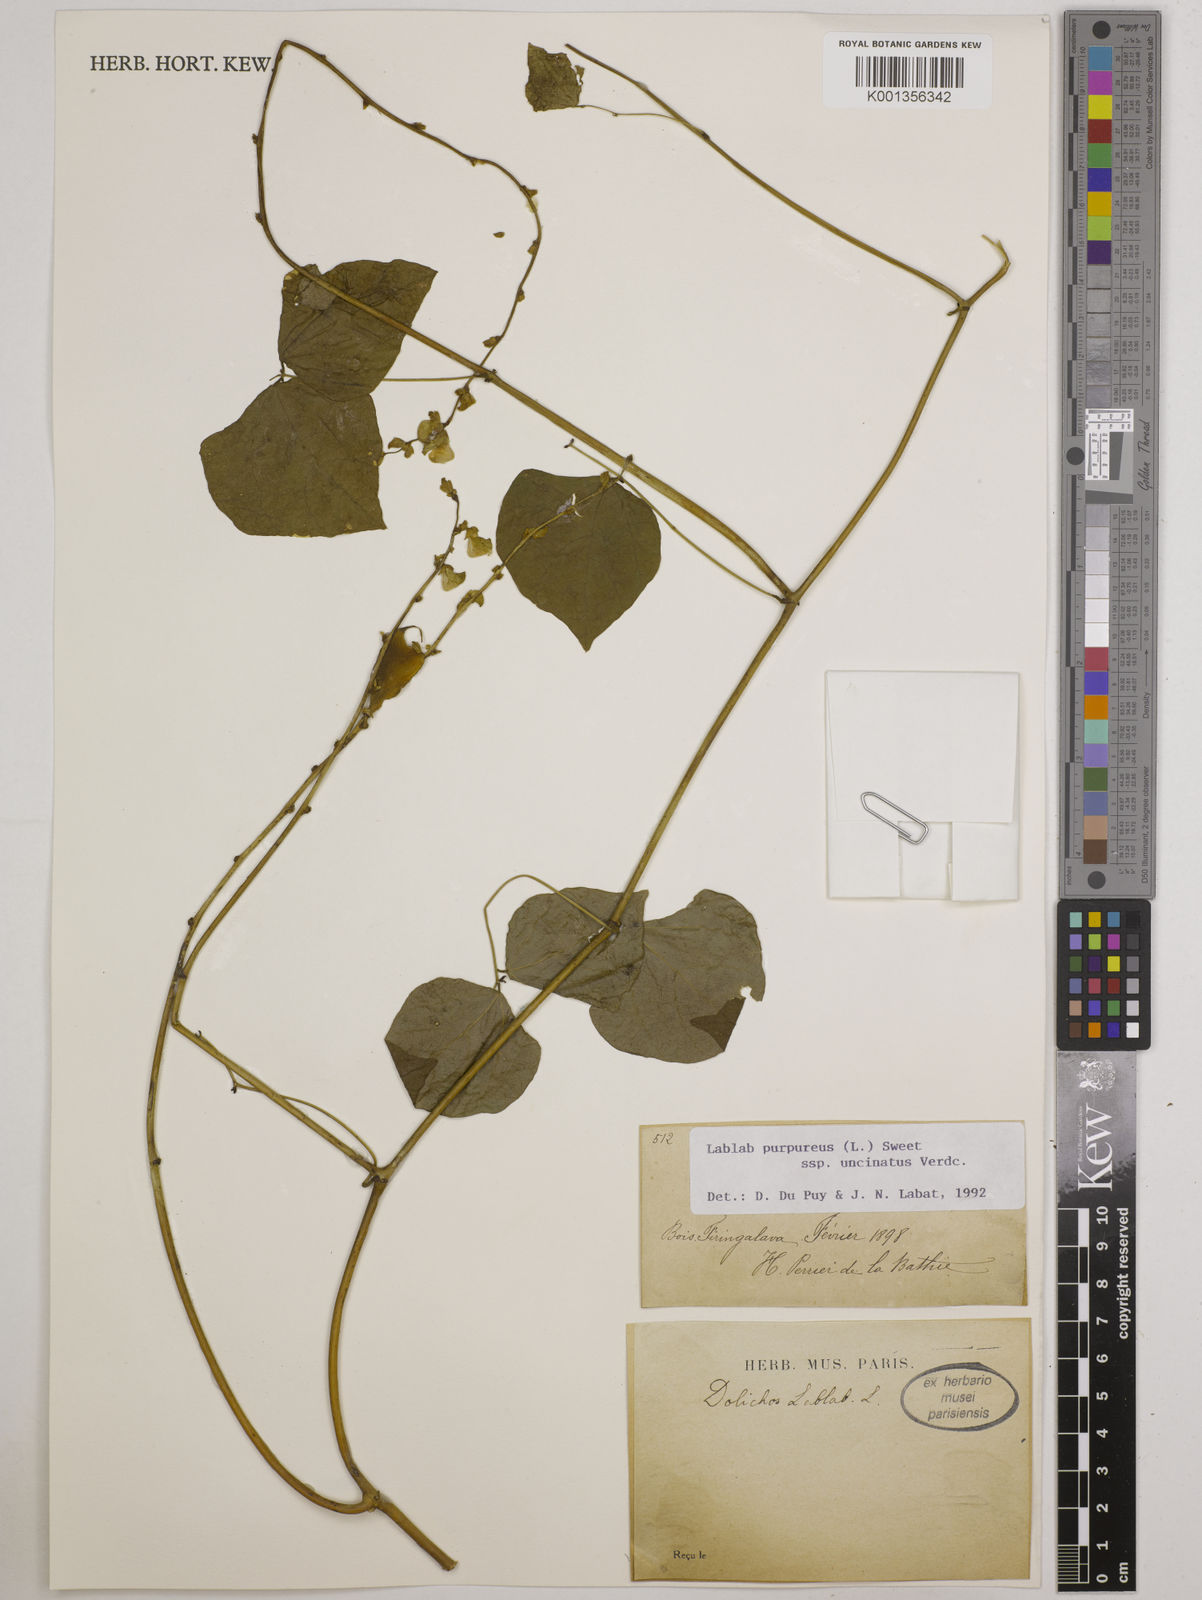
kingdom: Plantae
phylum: Tracheophyta
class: Magnoliopsida
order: Fabales
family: Fabaceae
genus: Lablab
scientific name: Lablab purpureus
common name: Lablab-bean
